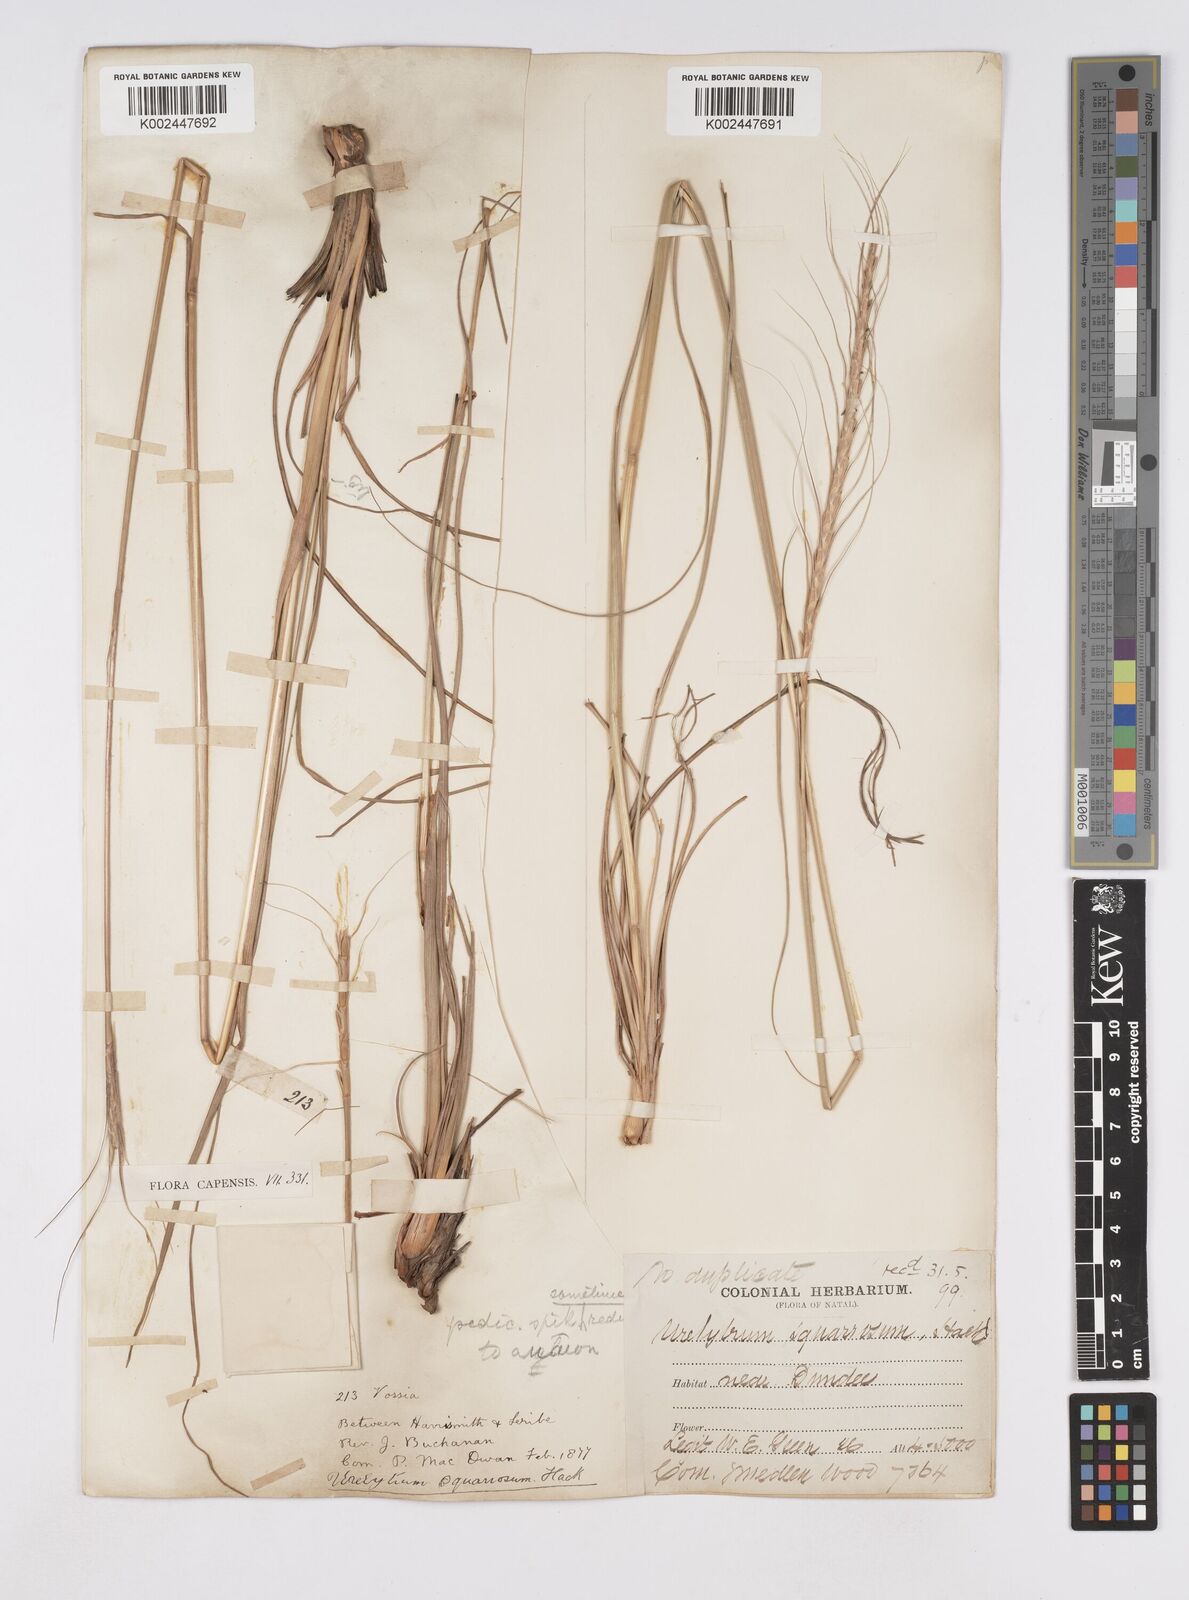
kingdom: Plantae
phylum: Tracheophyta
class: Liliopsida
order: Poales
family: Poaceae
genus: Urelytrum
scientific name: Urelytrum agropyroides
